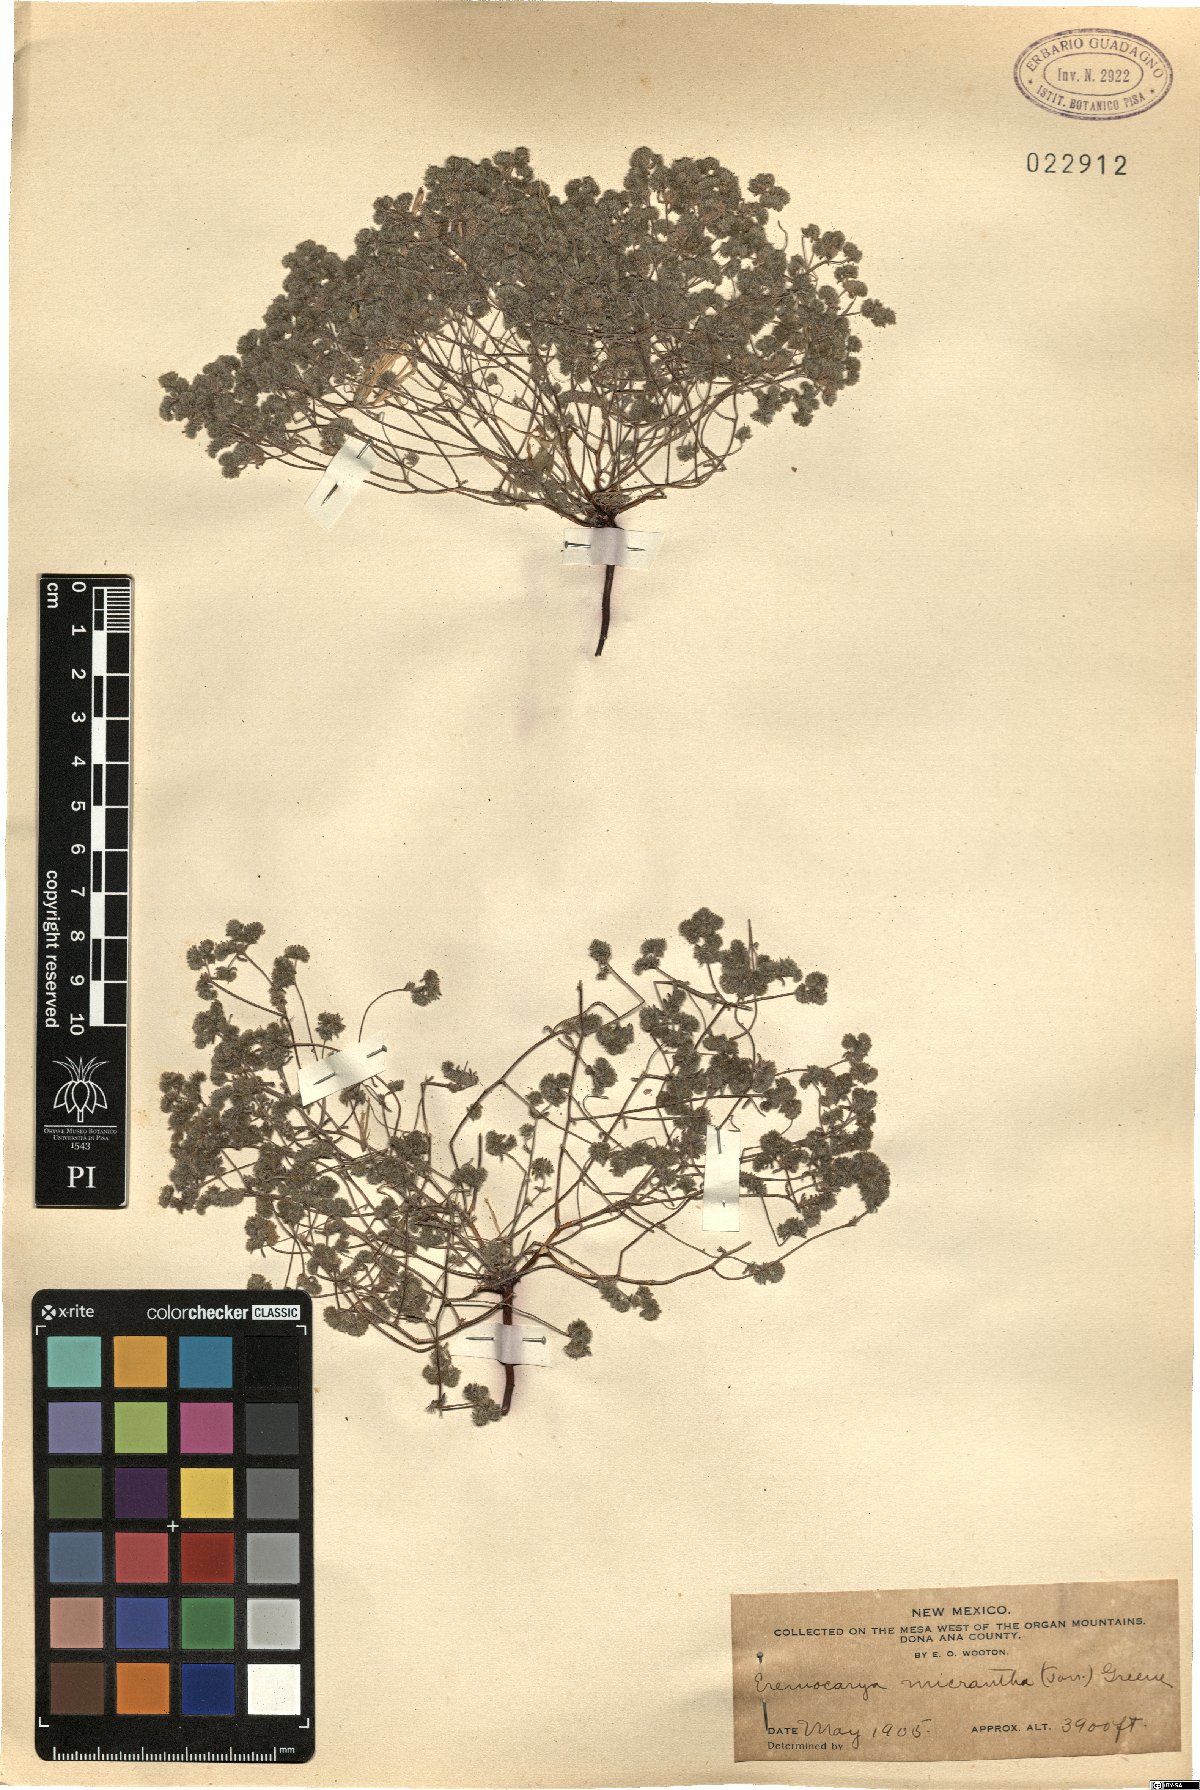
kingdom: Plantae
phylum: Tracheophyta
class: Magnoliopsida
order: Boraginales
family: Boraginaceae
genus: Eremocarya
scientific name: Eremocarya micrantha
